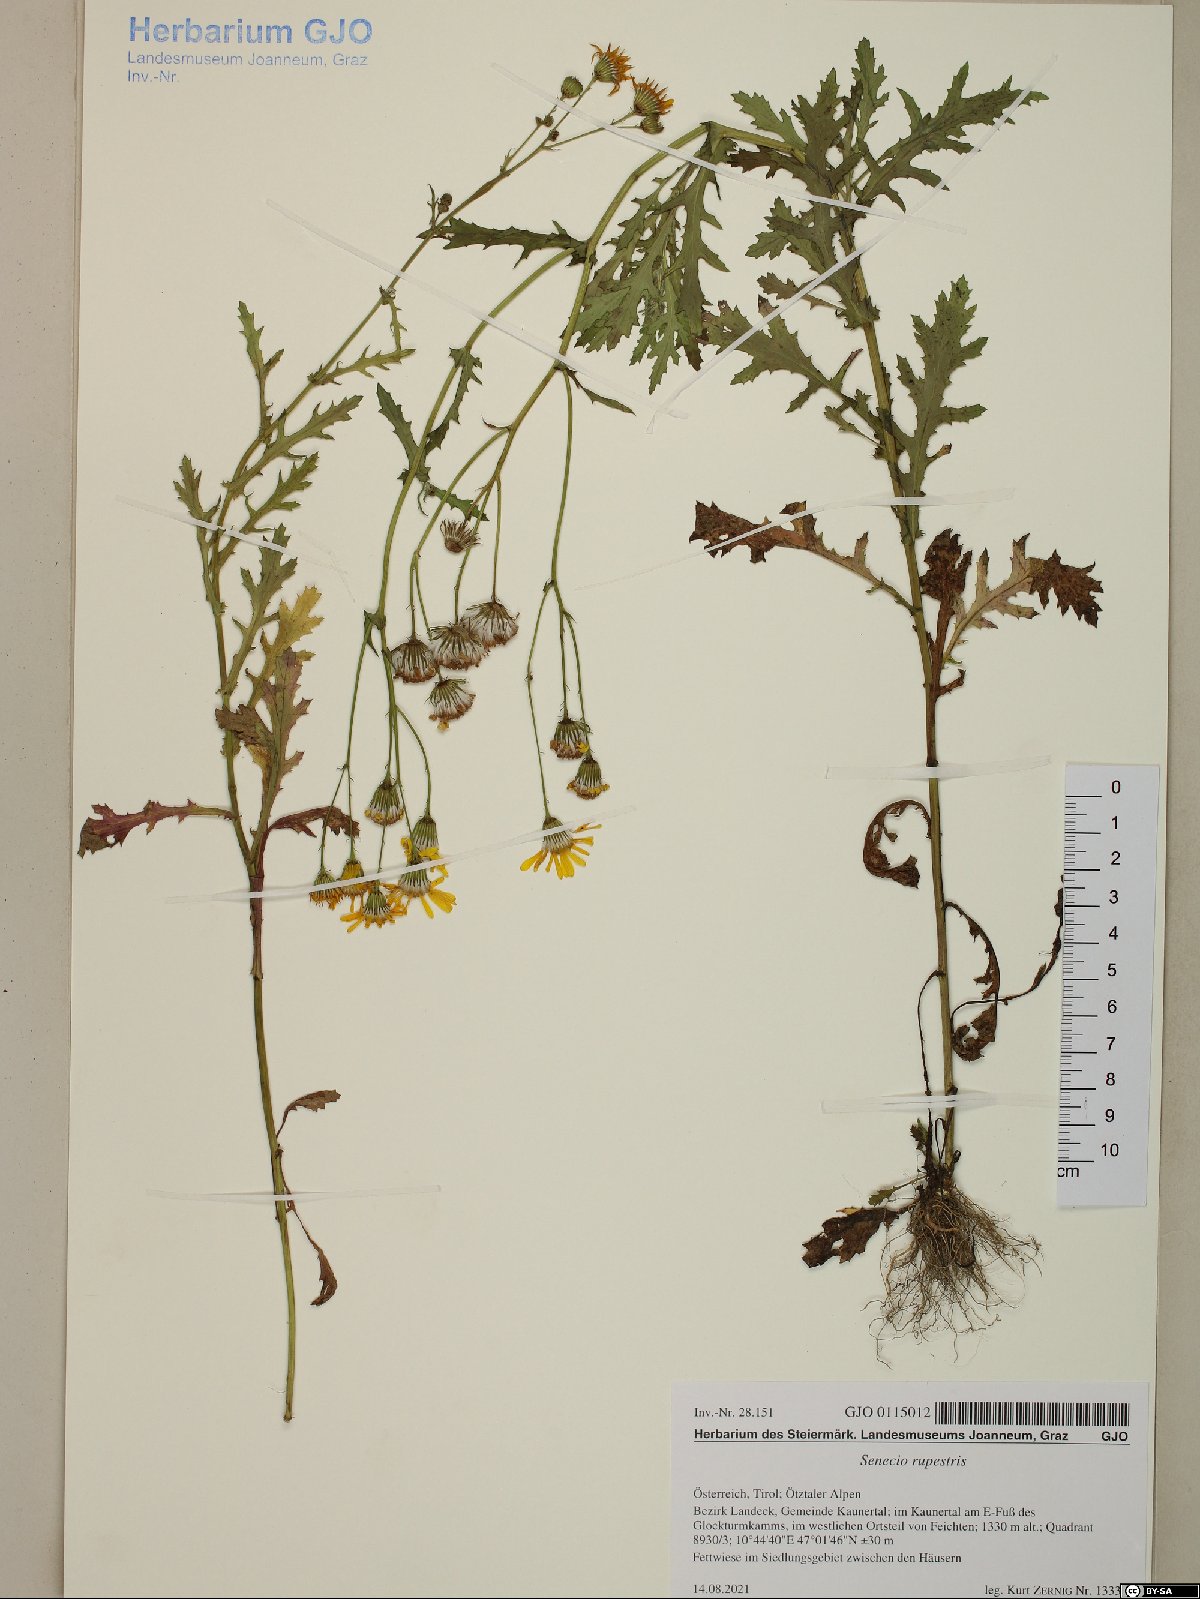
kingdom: Plantae
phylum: Tracheophyta
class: Magnoliopsida
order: Asterales
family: Asteraceae
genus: Senecio
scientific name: Senecio rupestris
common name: Rock ragwort
